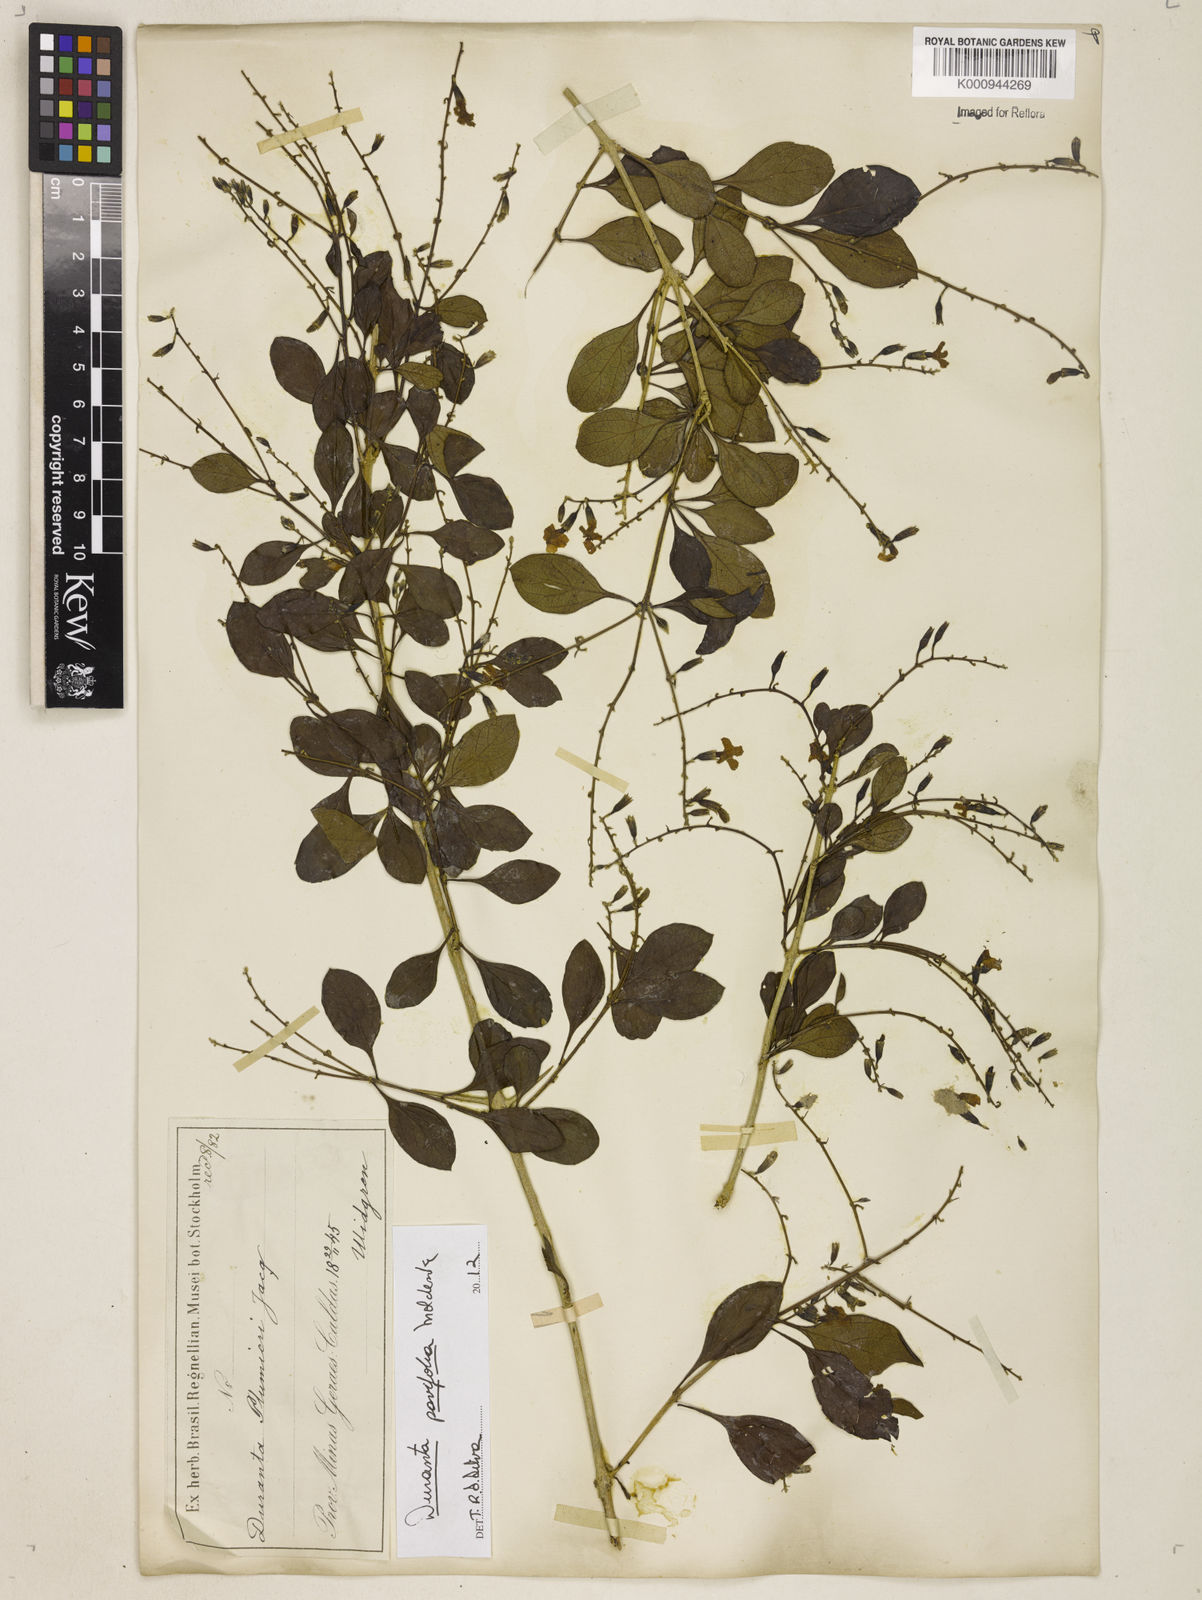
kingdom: Plantae
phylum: Tracheophyta
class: Magnoliopsida
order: Lamiales
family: Verbenaceae
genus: Citharexylum
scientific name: Citharexylum
